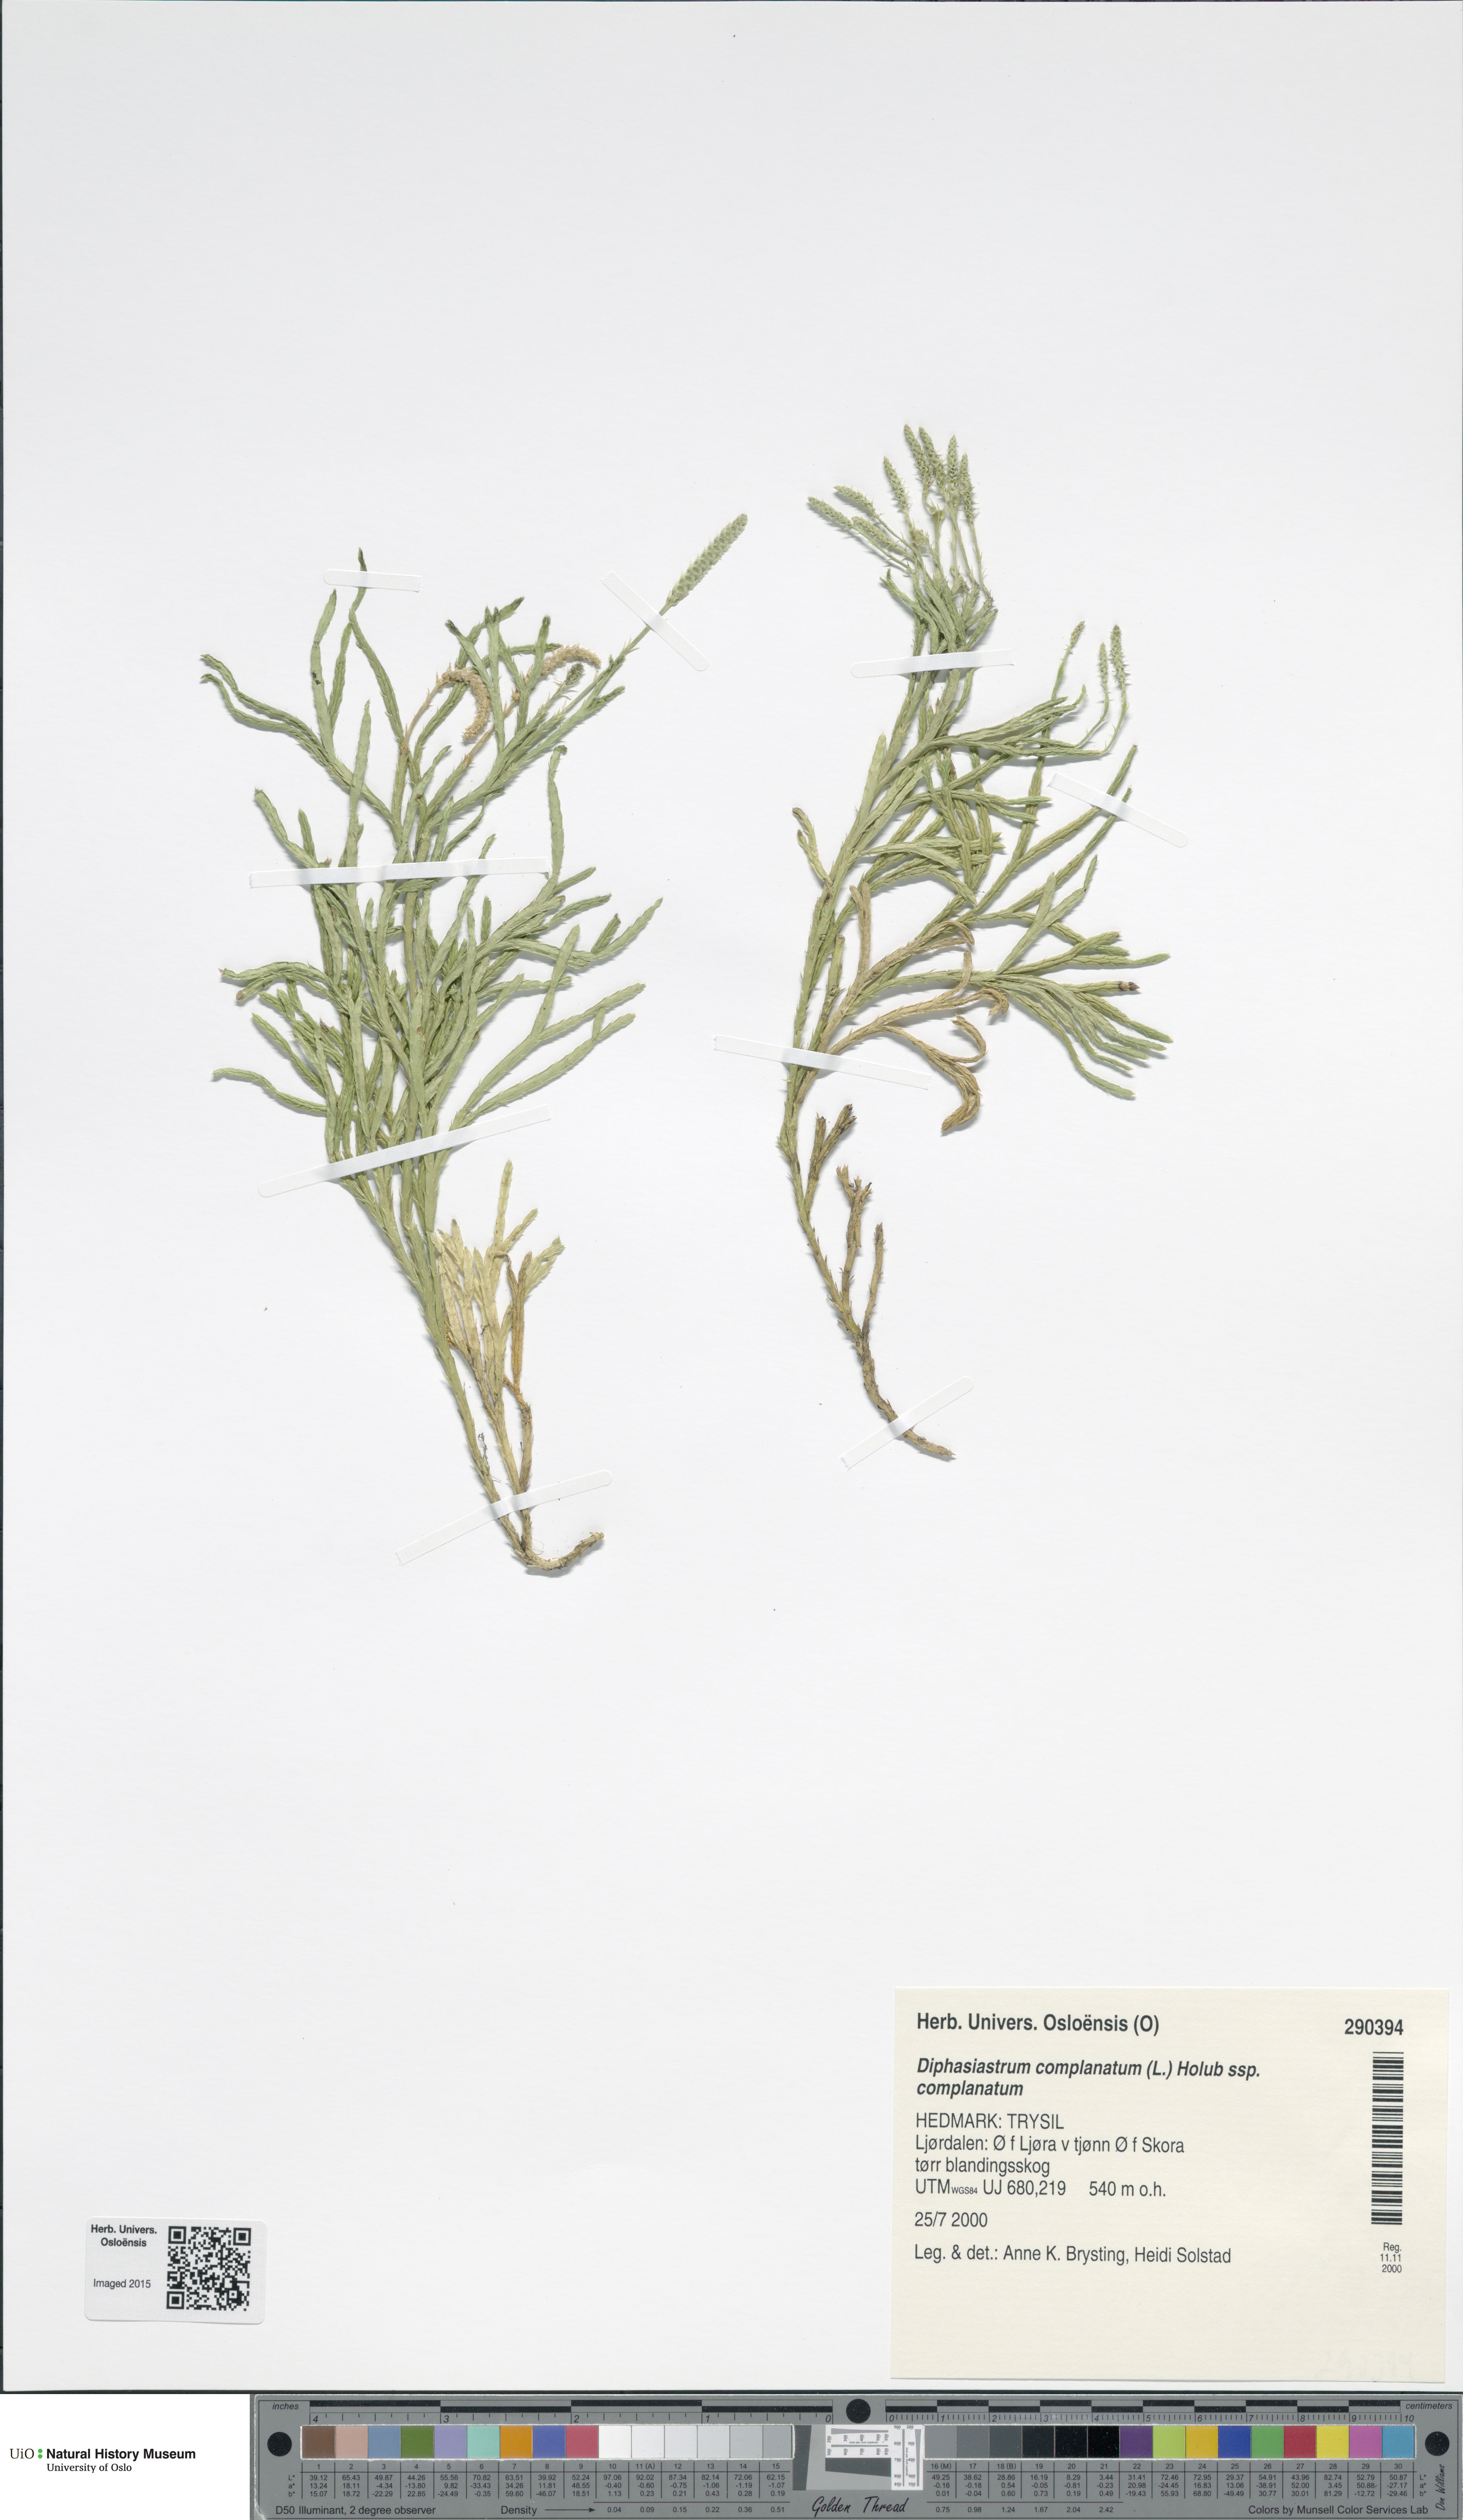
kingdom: Plantae
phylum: Tracheophyta
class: Lycopodiopsida
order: Lycopodiales
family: Lycopodiaceae
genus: Diphasiastrum
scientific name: Diphasiastrum complanatum
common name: Northern running-pine
